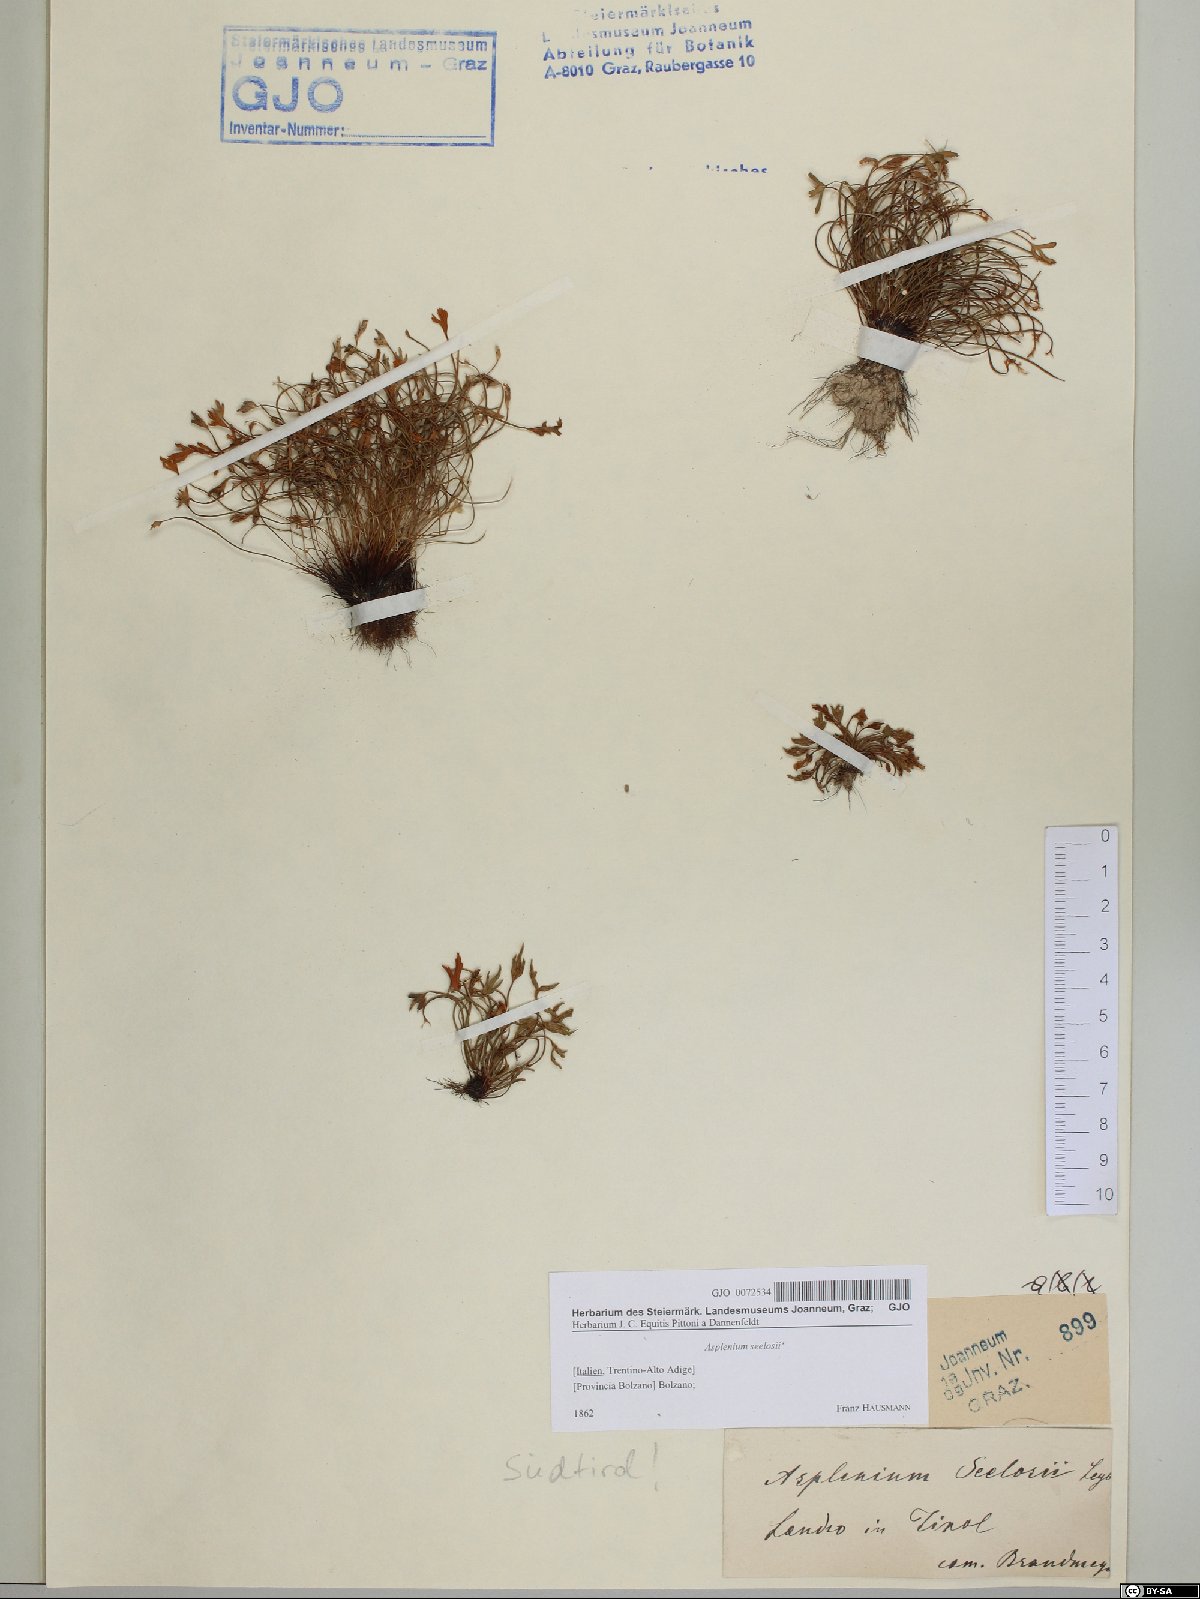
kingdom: Plantae
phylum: Tracheophyta
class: Polypodiopsida
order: Polypodiales
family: Aspleniaceae
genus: Asplenium
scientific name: Asplenium seelosii
